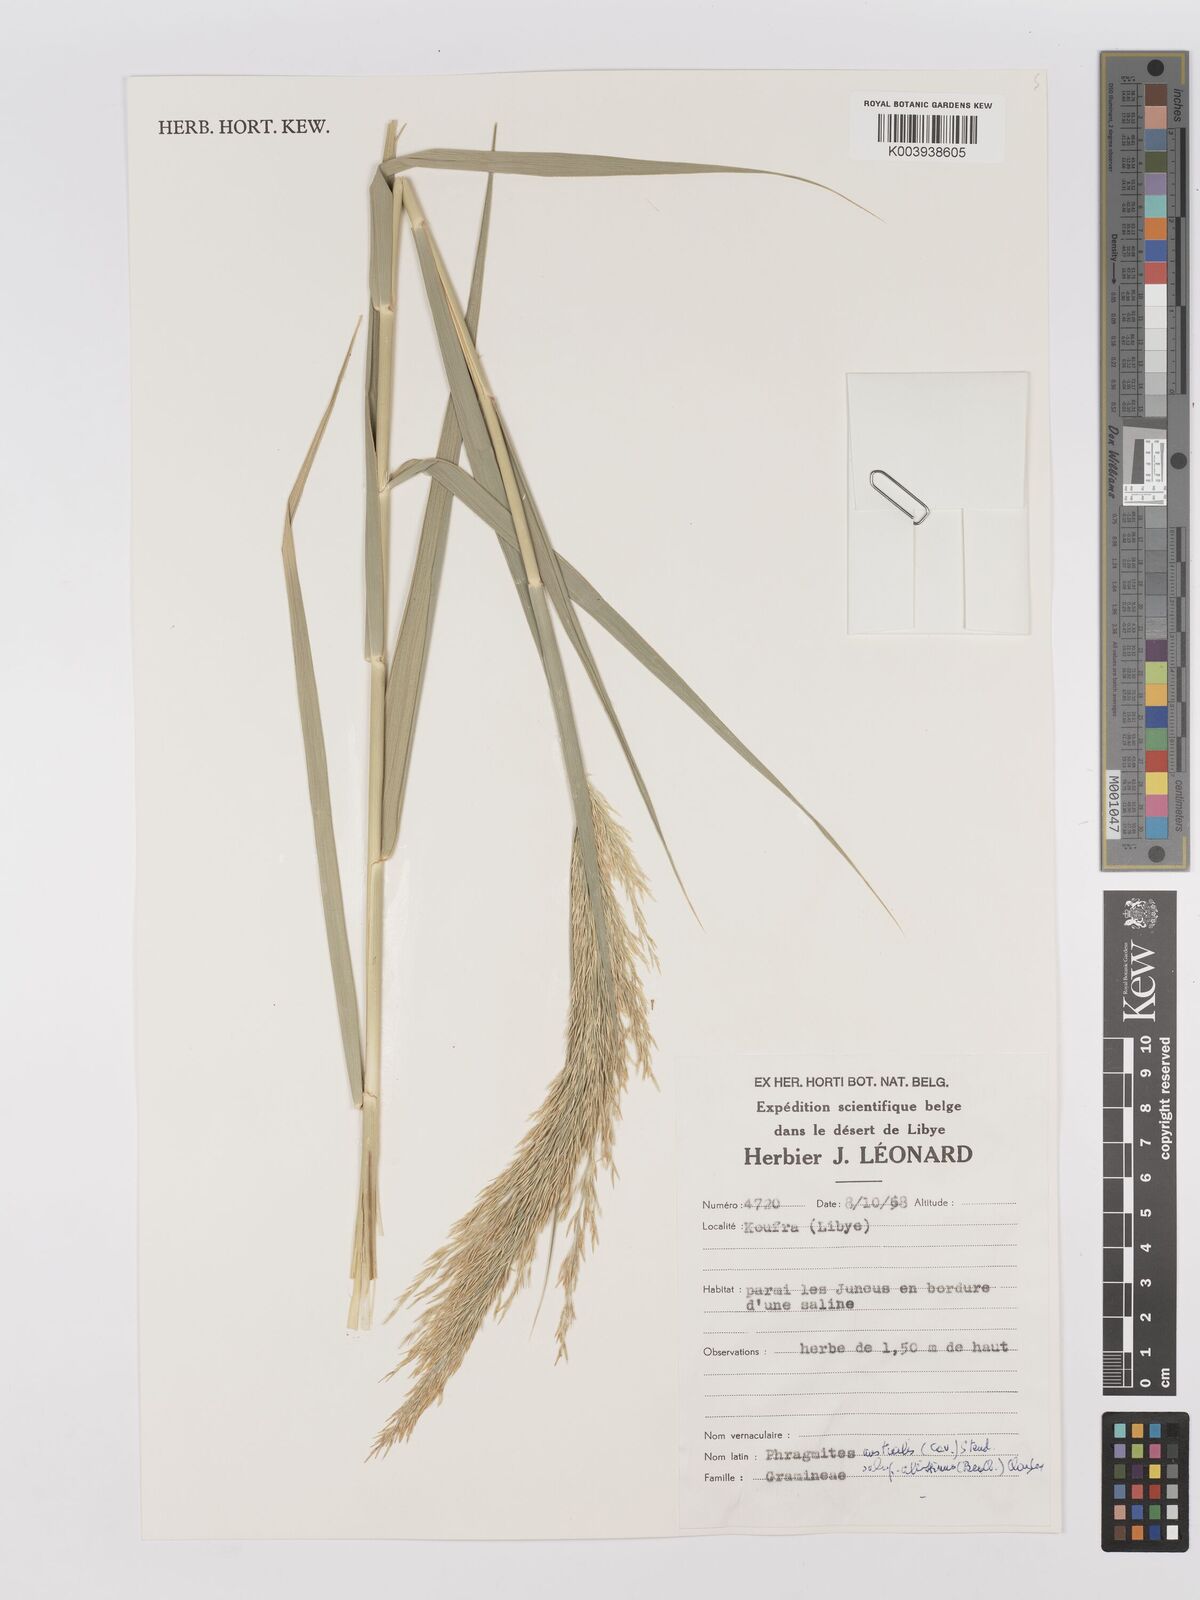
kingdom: Plantae
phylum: Tracheophyta
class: Liliopsida
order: Poales
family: Poaceae
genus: Phragmites
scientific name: Phragmites australis
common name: Common reed
